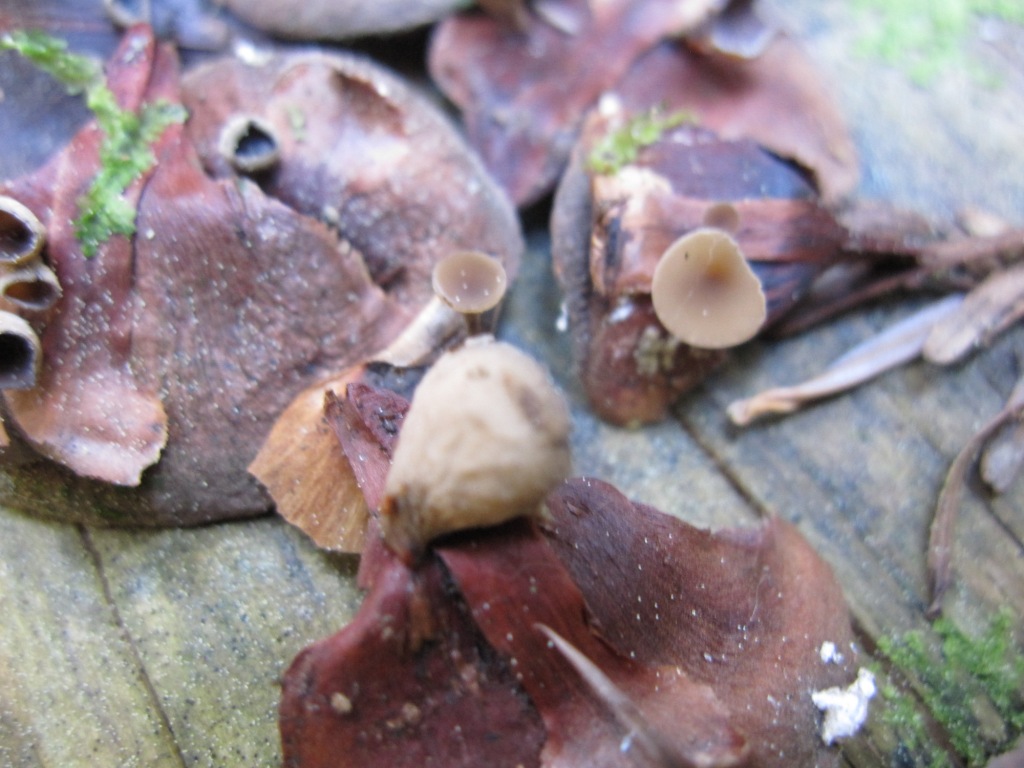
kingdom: Fungi
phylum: Ascomycota
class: Leotiomycetes
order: Helotiales
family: Sclerotiniaceae
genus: Ciboria
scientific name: Ciboria rufofusca
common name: kogleskæl-knoldskive
